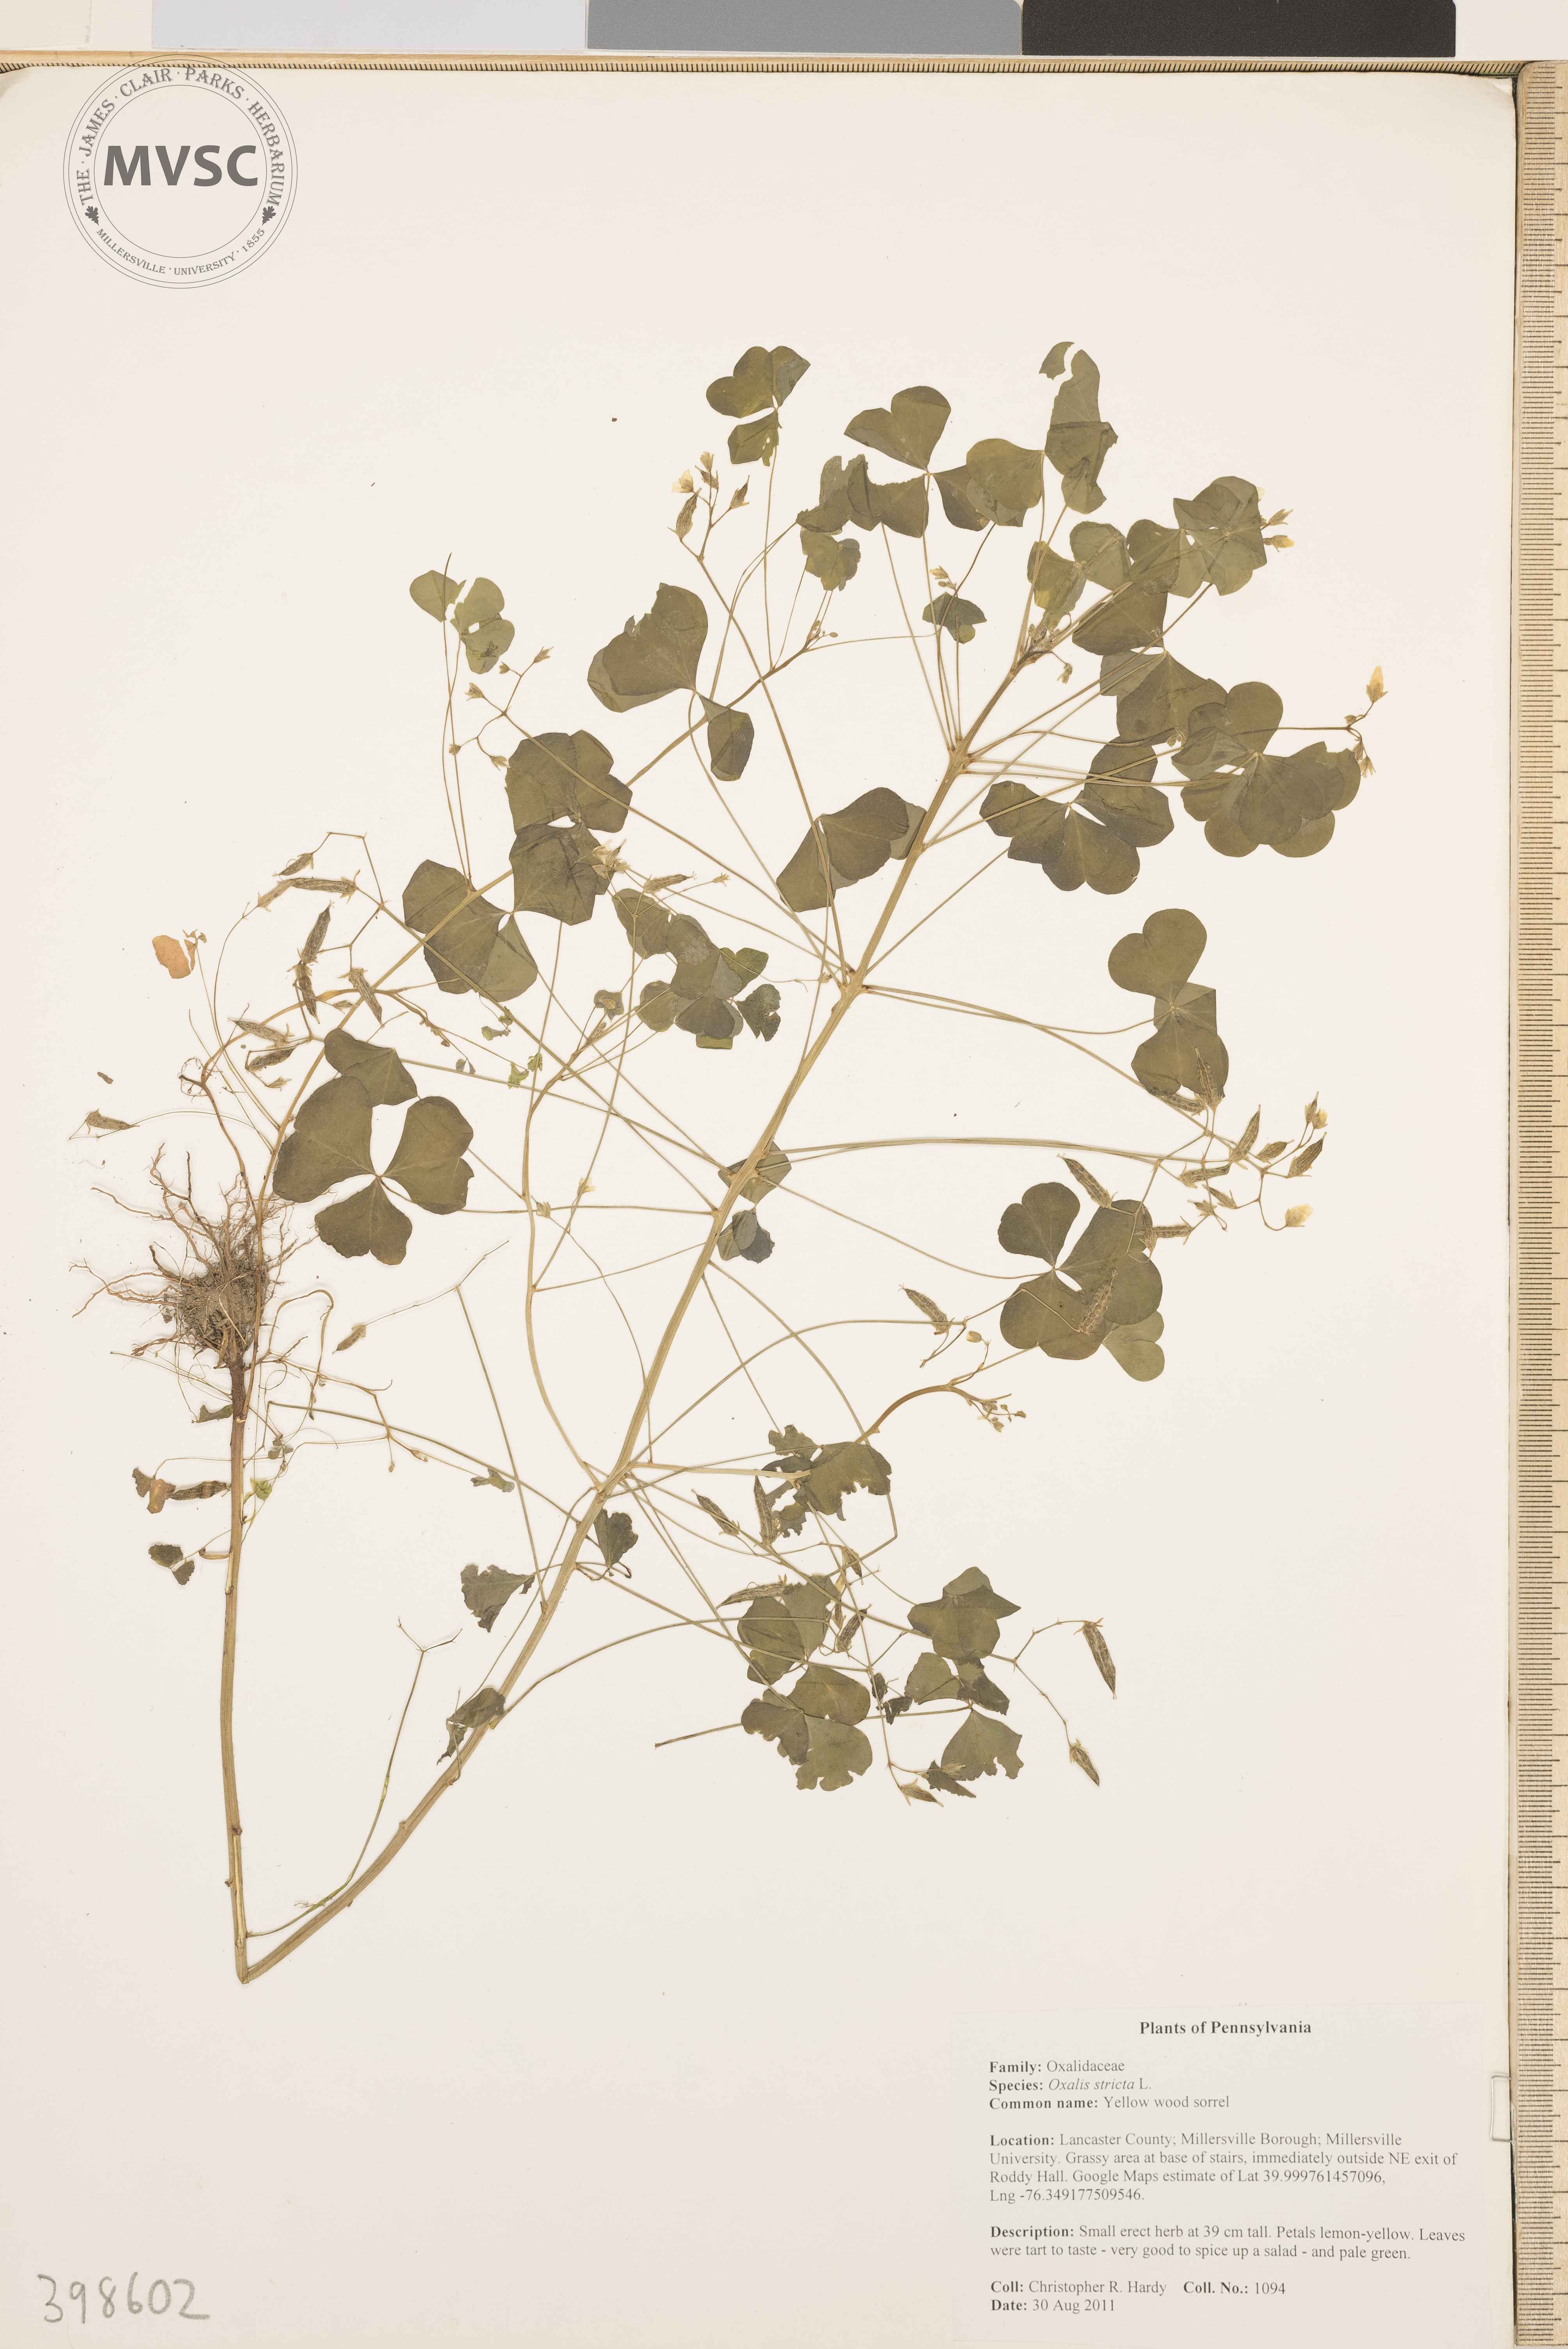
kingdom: Plantae
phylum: Tracheophyta
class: Magnoliopsida
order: Oxalidales
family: Oxalidaceae
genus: Oxalis
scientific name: Oxalis stricta
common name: Common yellow wood-sorrel
